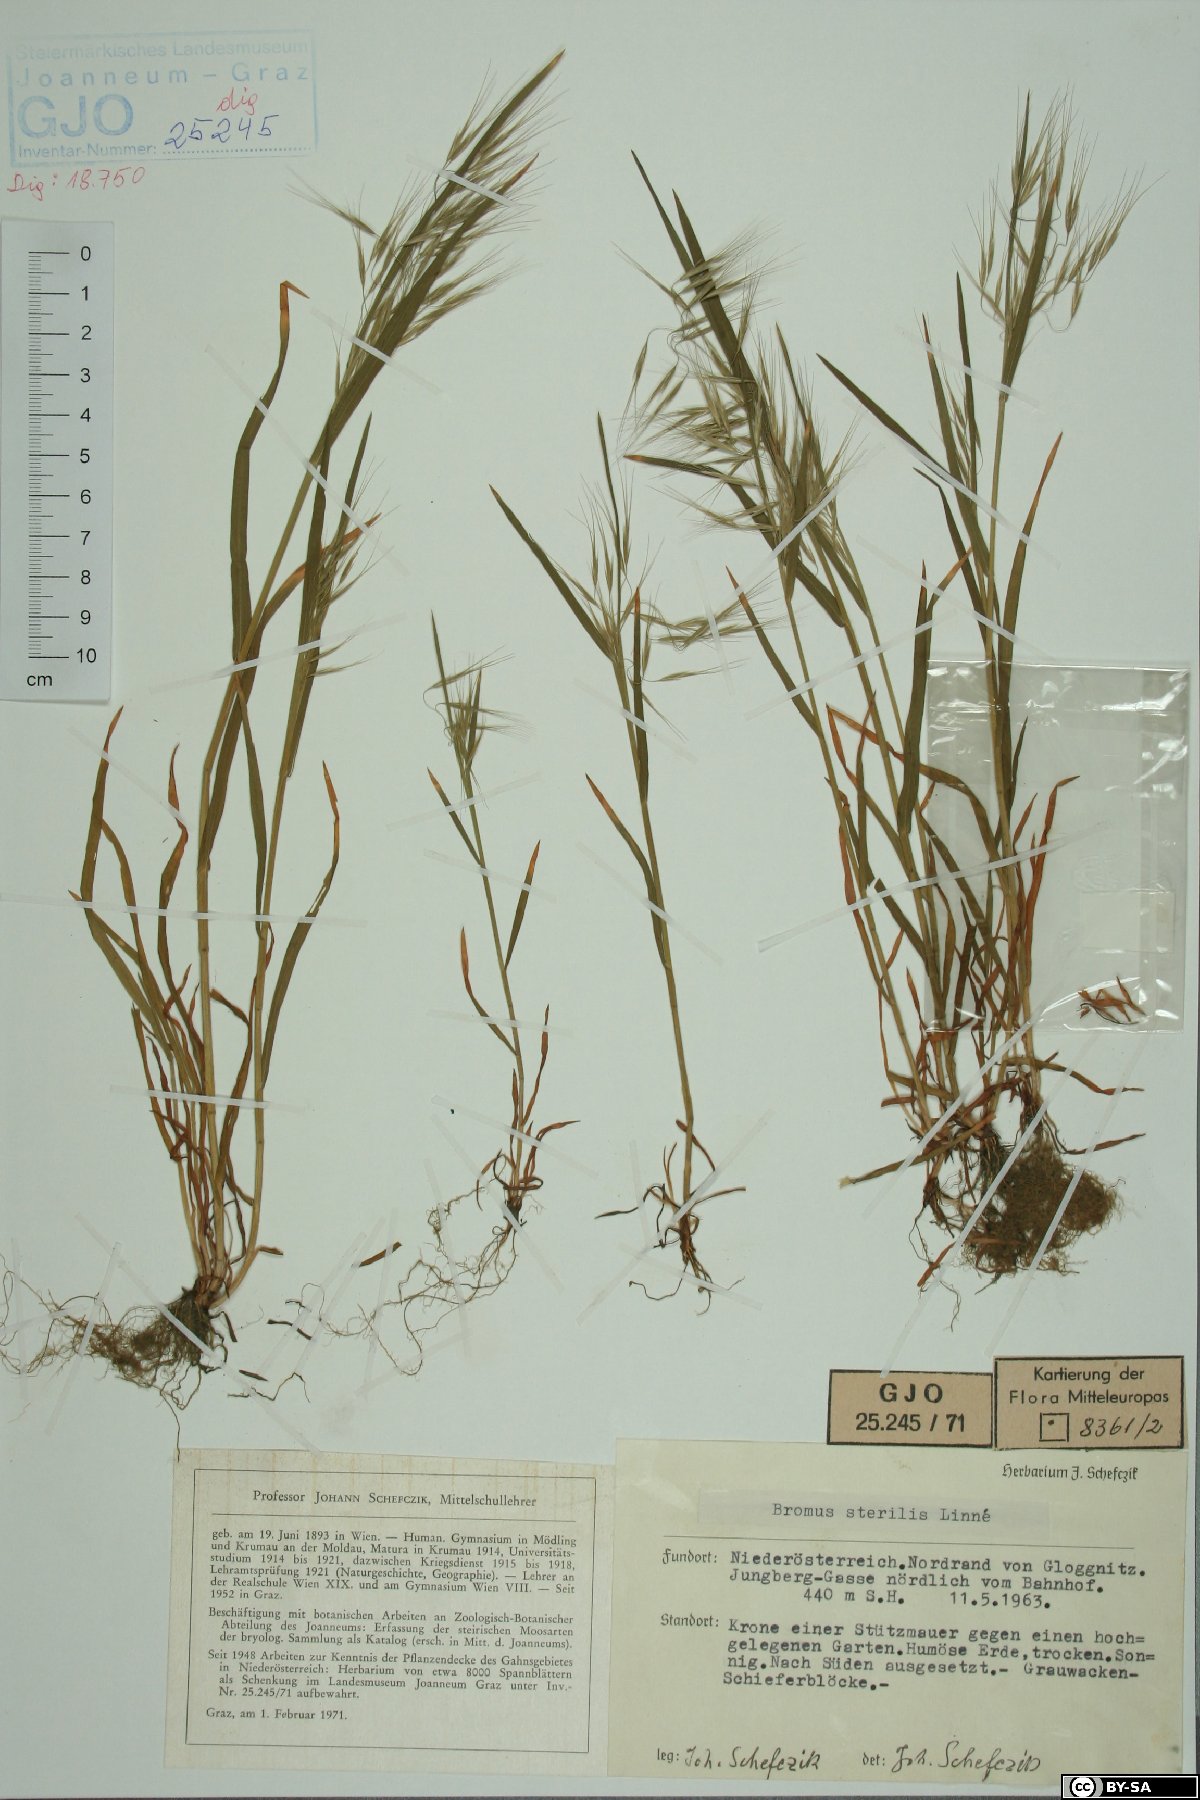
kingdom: Plantae
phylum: Tracheophyta
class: Liliopsida
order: Poales
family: Poaceae
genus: Bromus
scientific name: Bromus sterilis
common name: Poverty brome
